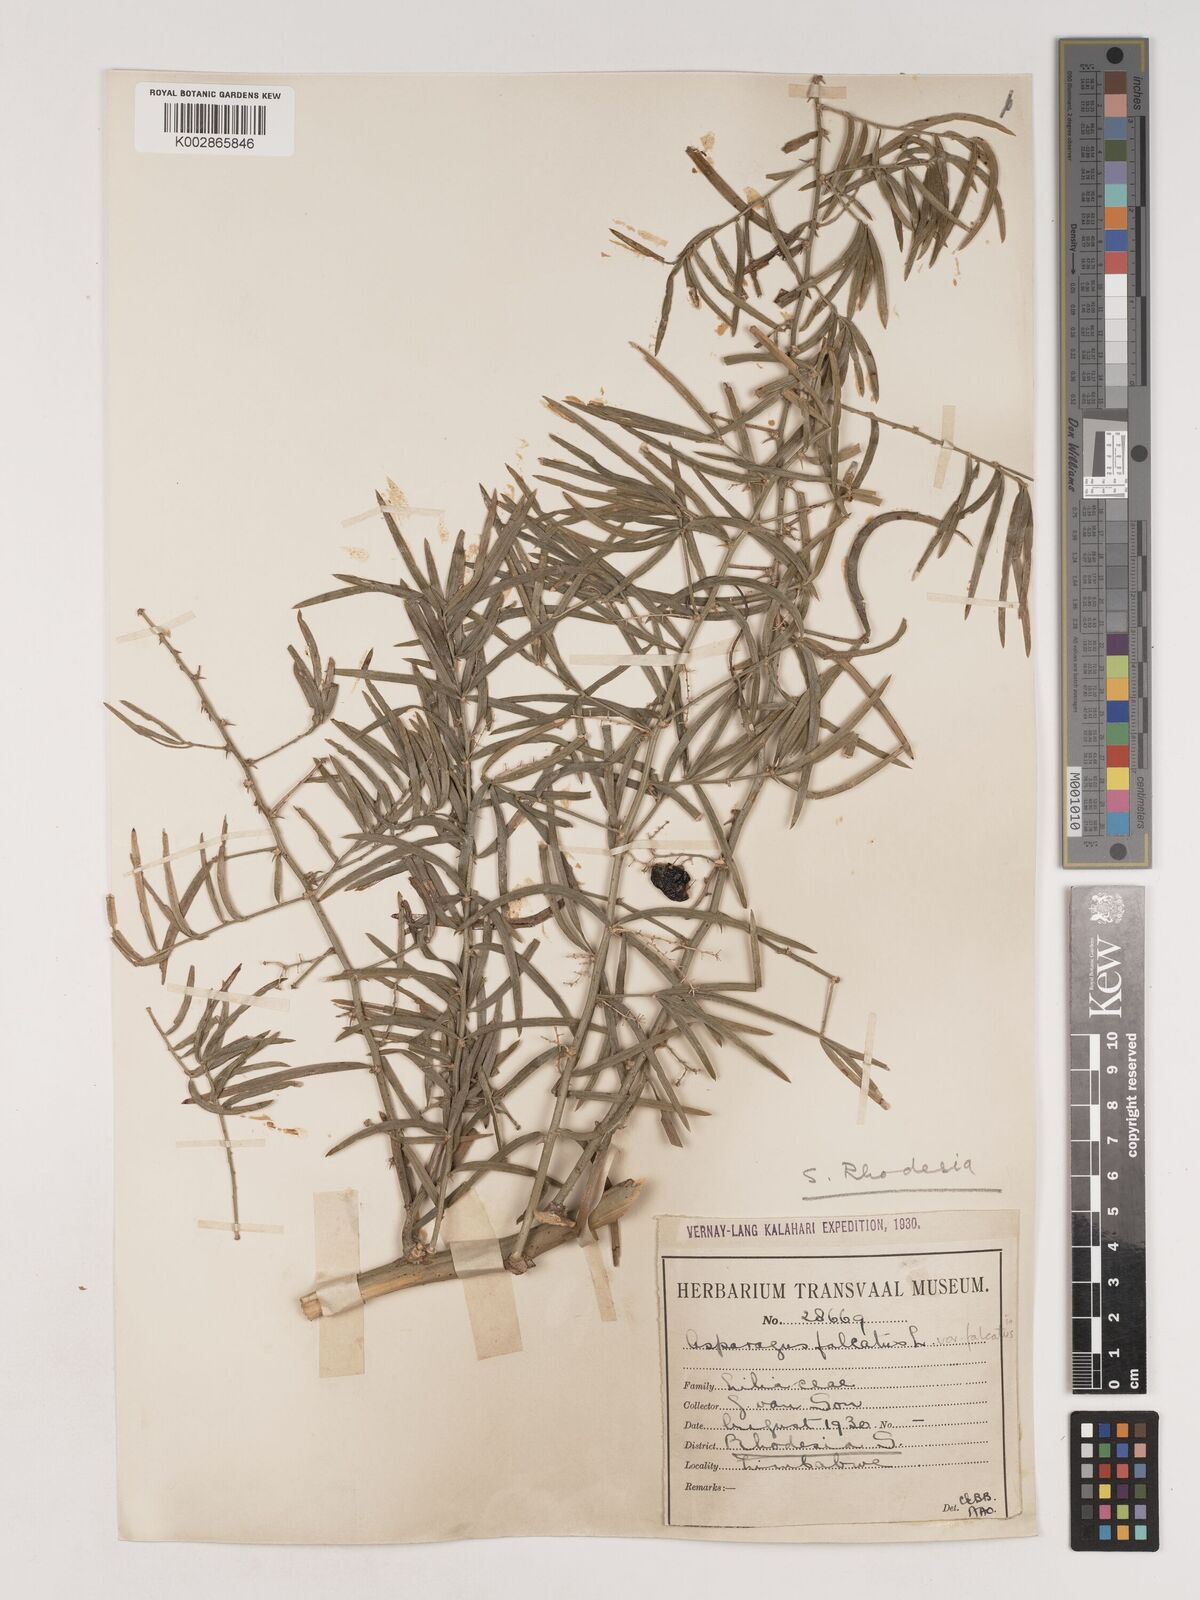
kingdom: Plantae
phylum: Tracheophyta
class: Liliopsida
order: Asparagales
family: Asparagaceae
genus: Asparagus
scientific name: Asparagus falcatus
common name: Asparagus
